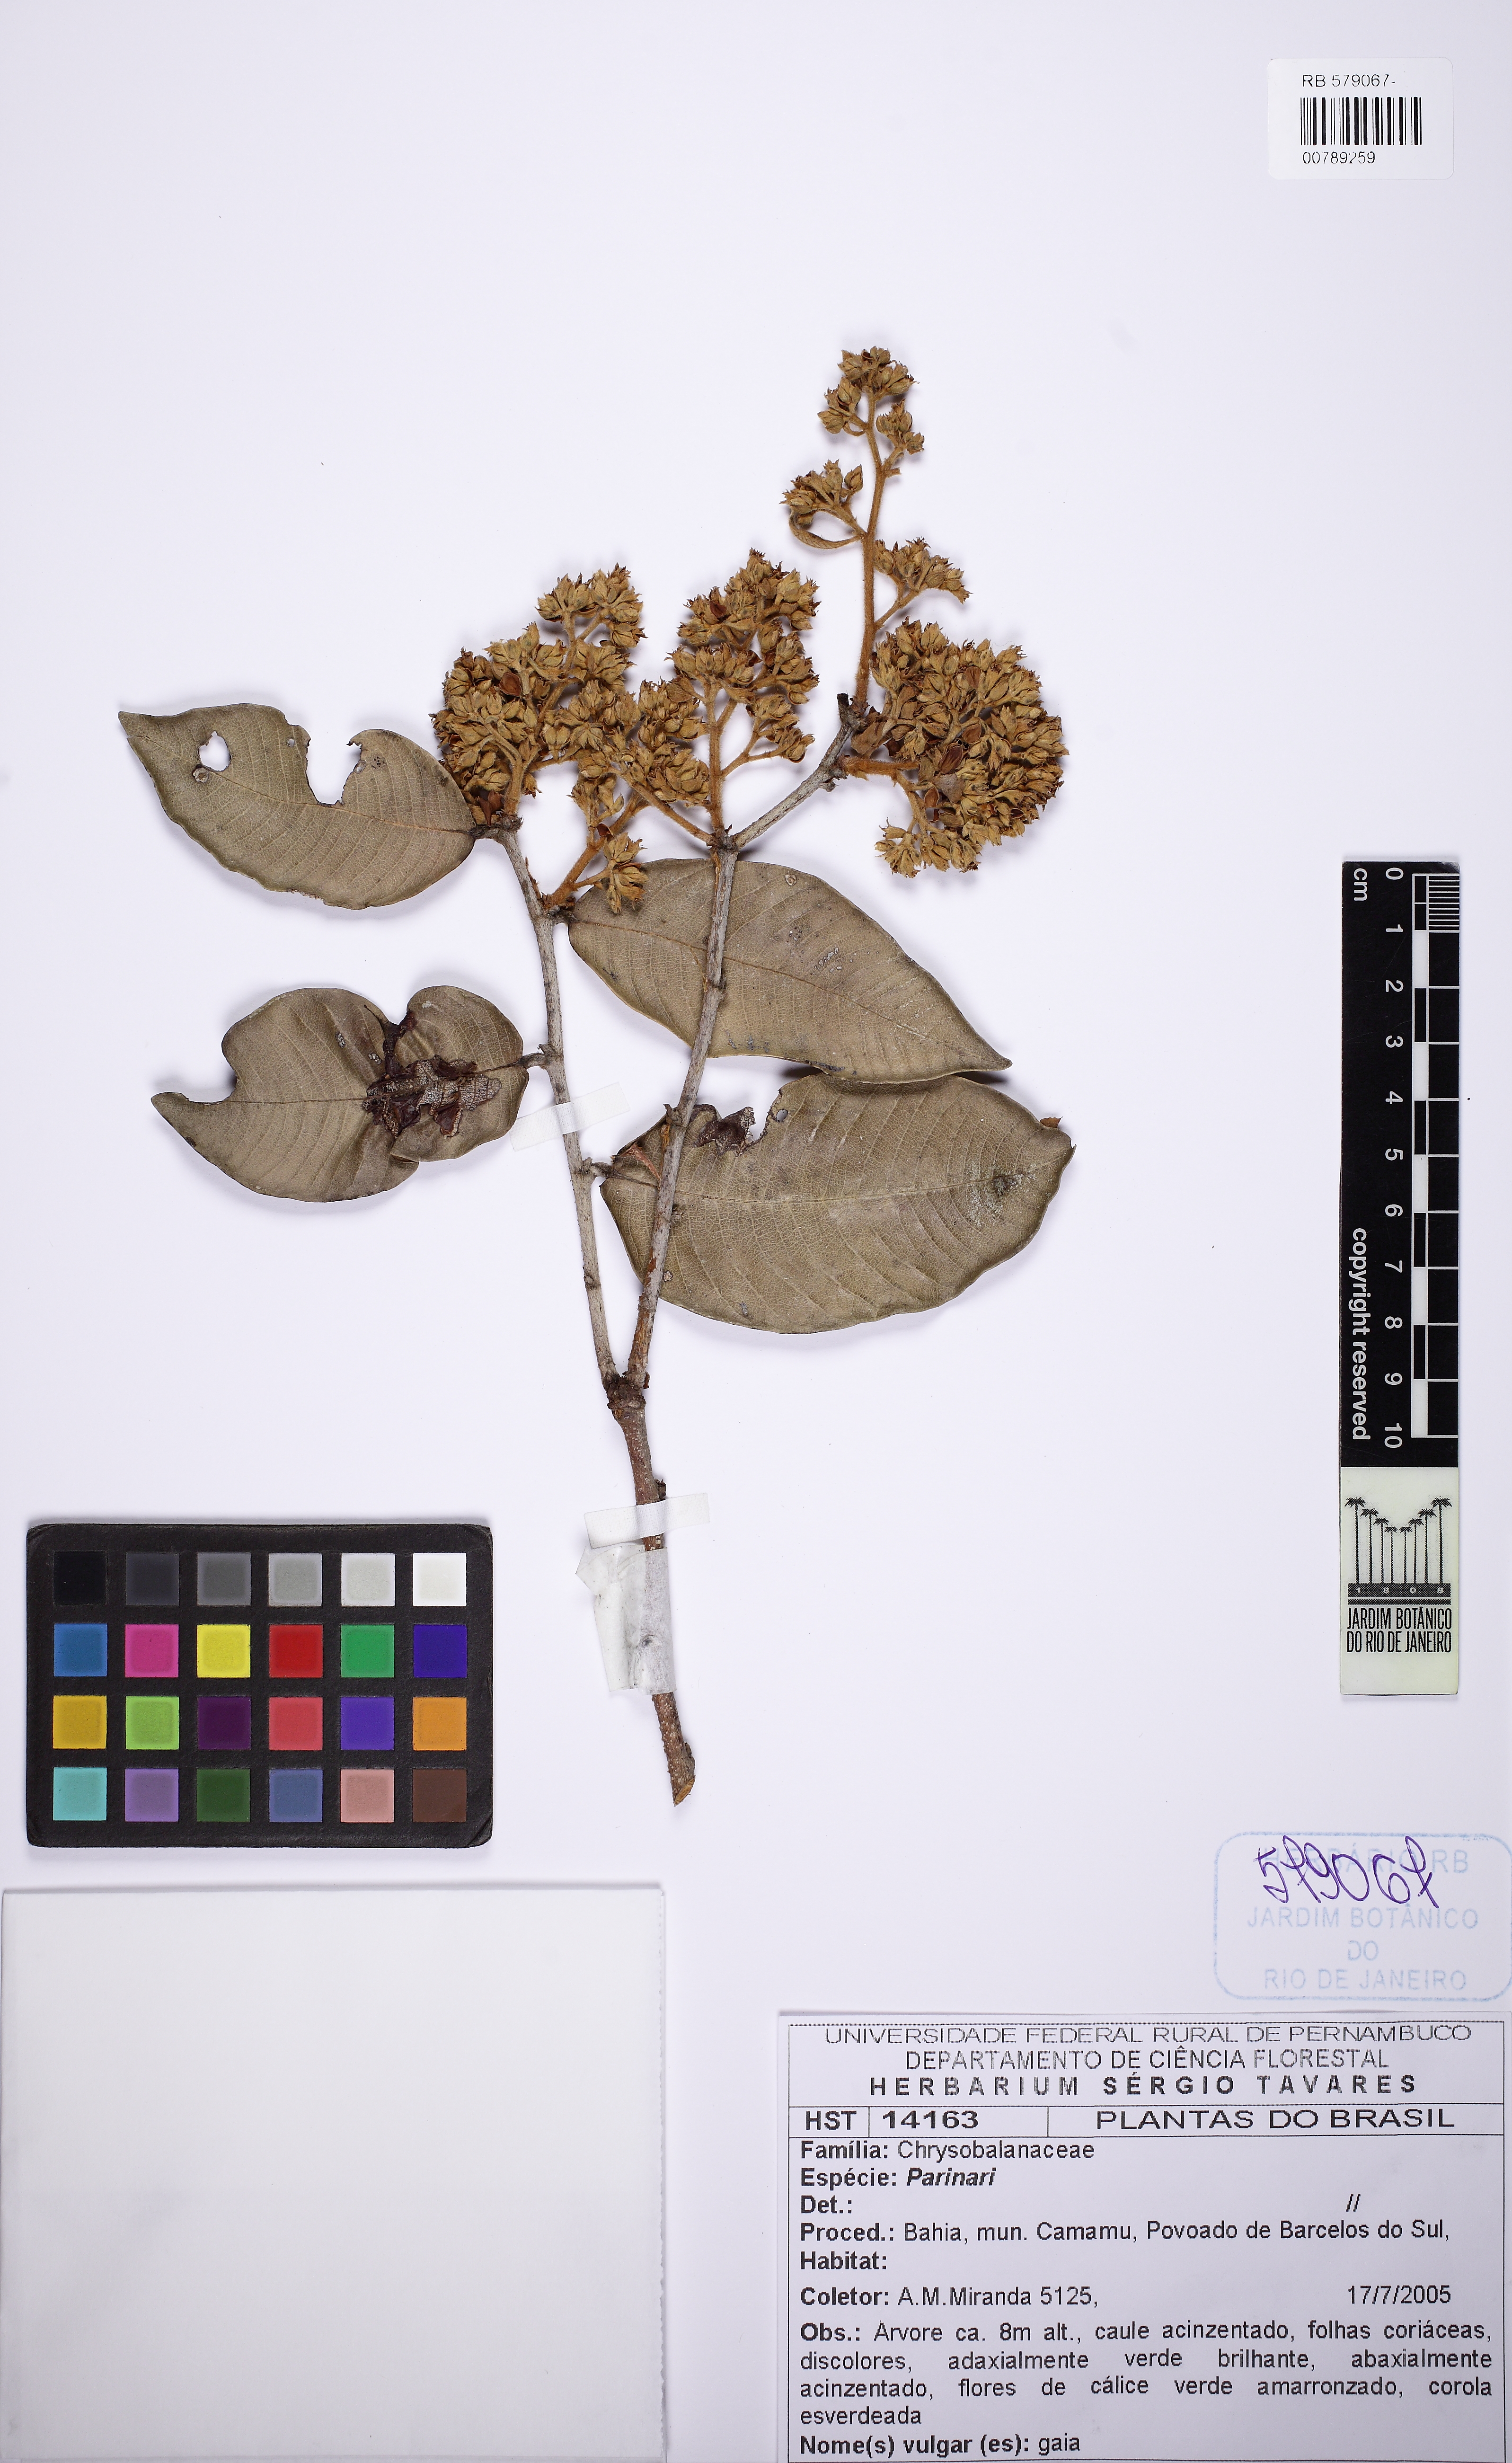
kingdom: Plantae
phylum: Tracheophyta
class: Magnoliopsida
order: Malpighiales
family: Chrysobalanaceae
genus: Parinari
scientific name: Parinari littoralis
